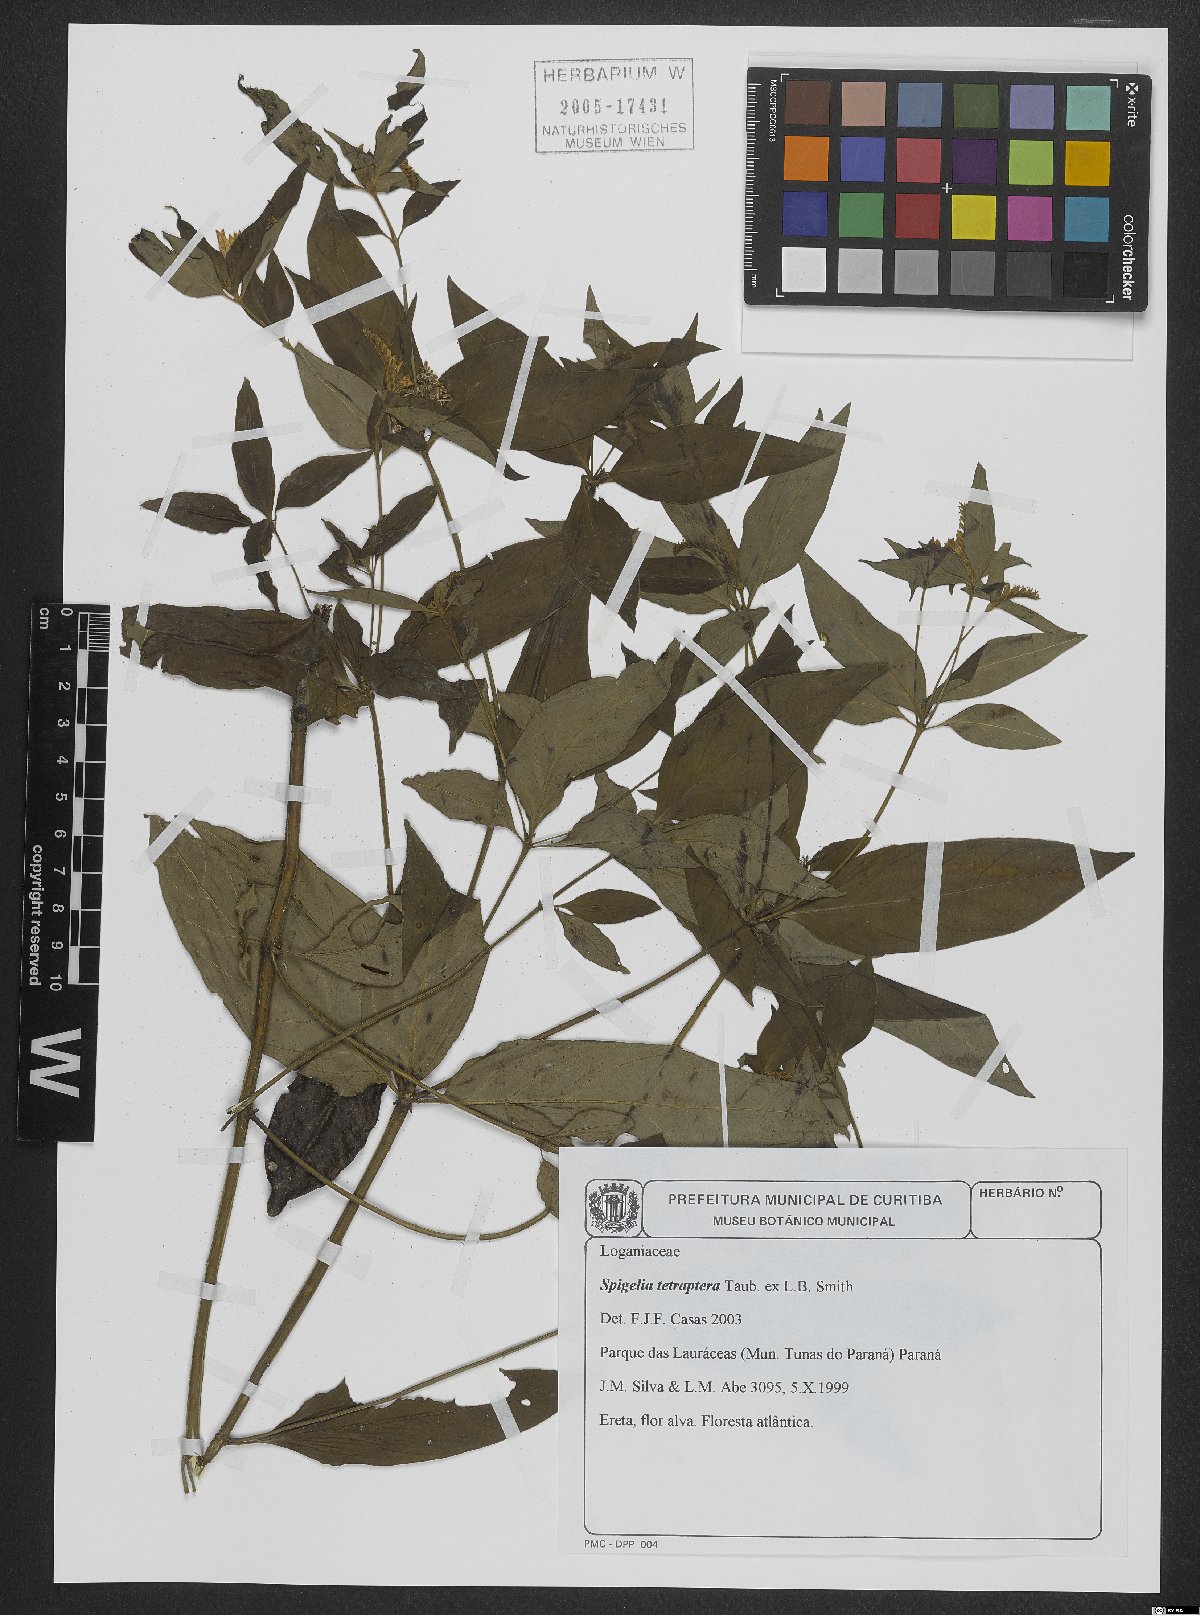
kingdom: Plantae
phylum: Tracheophyta
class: Magnoliopsida
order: Gentianales
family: Loganiaceae
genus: Spigelia
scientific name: Spigelia tetraptera
